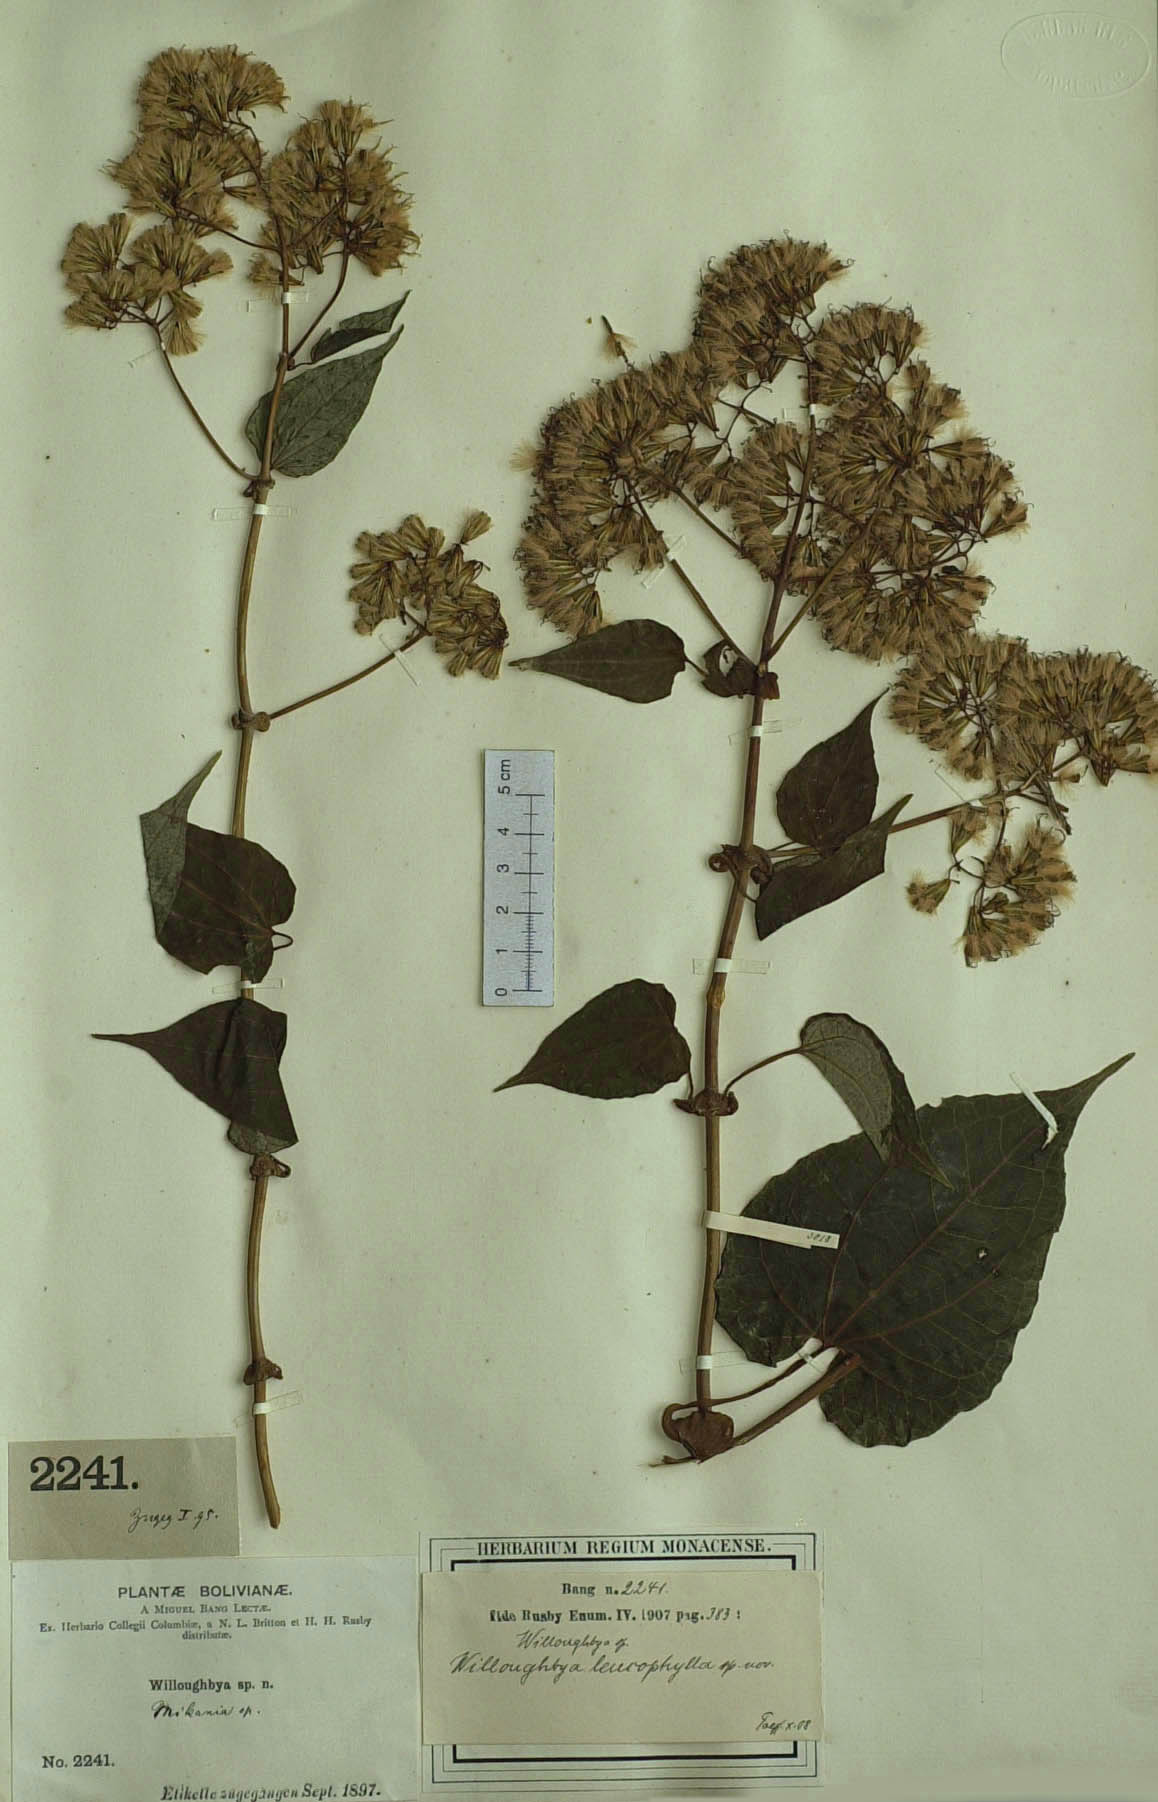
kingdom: Plantae
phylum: Tracheophyta
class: Magnoliopsida
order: Asterales
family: Asteraceae
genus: Mikania
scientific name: Mikania leucophylla
